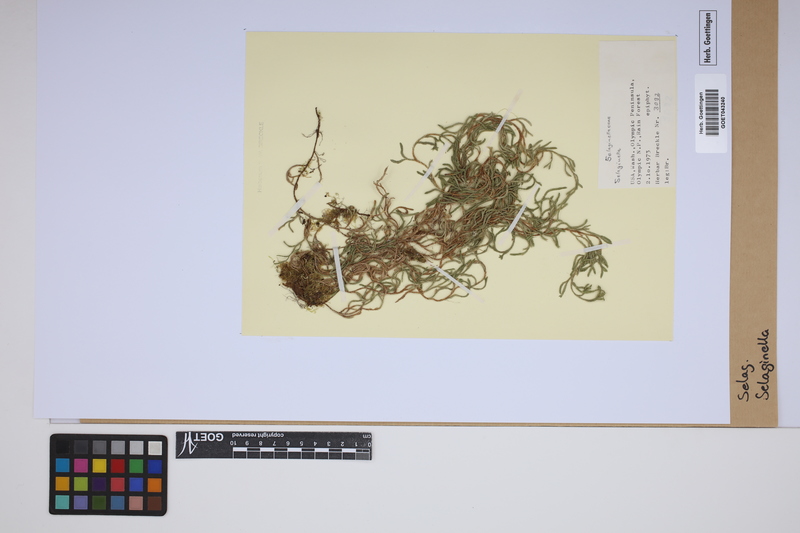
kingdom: Plantae
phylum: Tracheophyta
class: Lycopodiopsida
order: Selaginellales
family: Selaginellaceae
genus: Selaginella
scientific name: Selaginella
